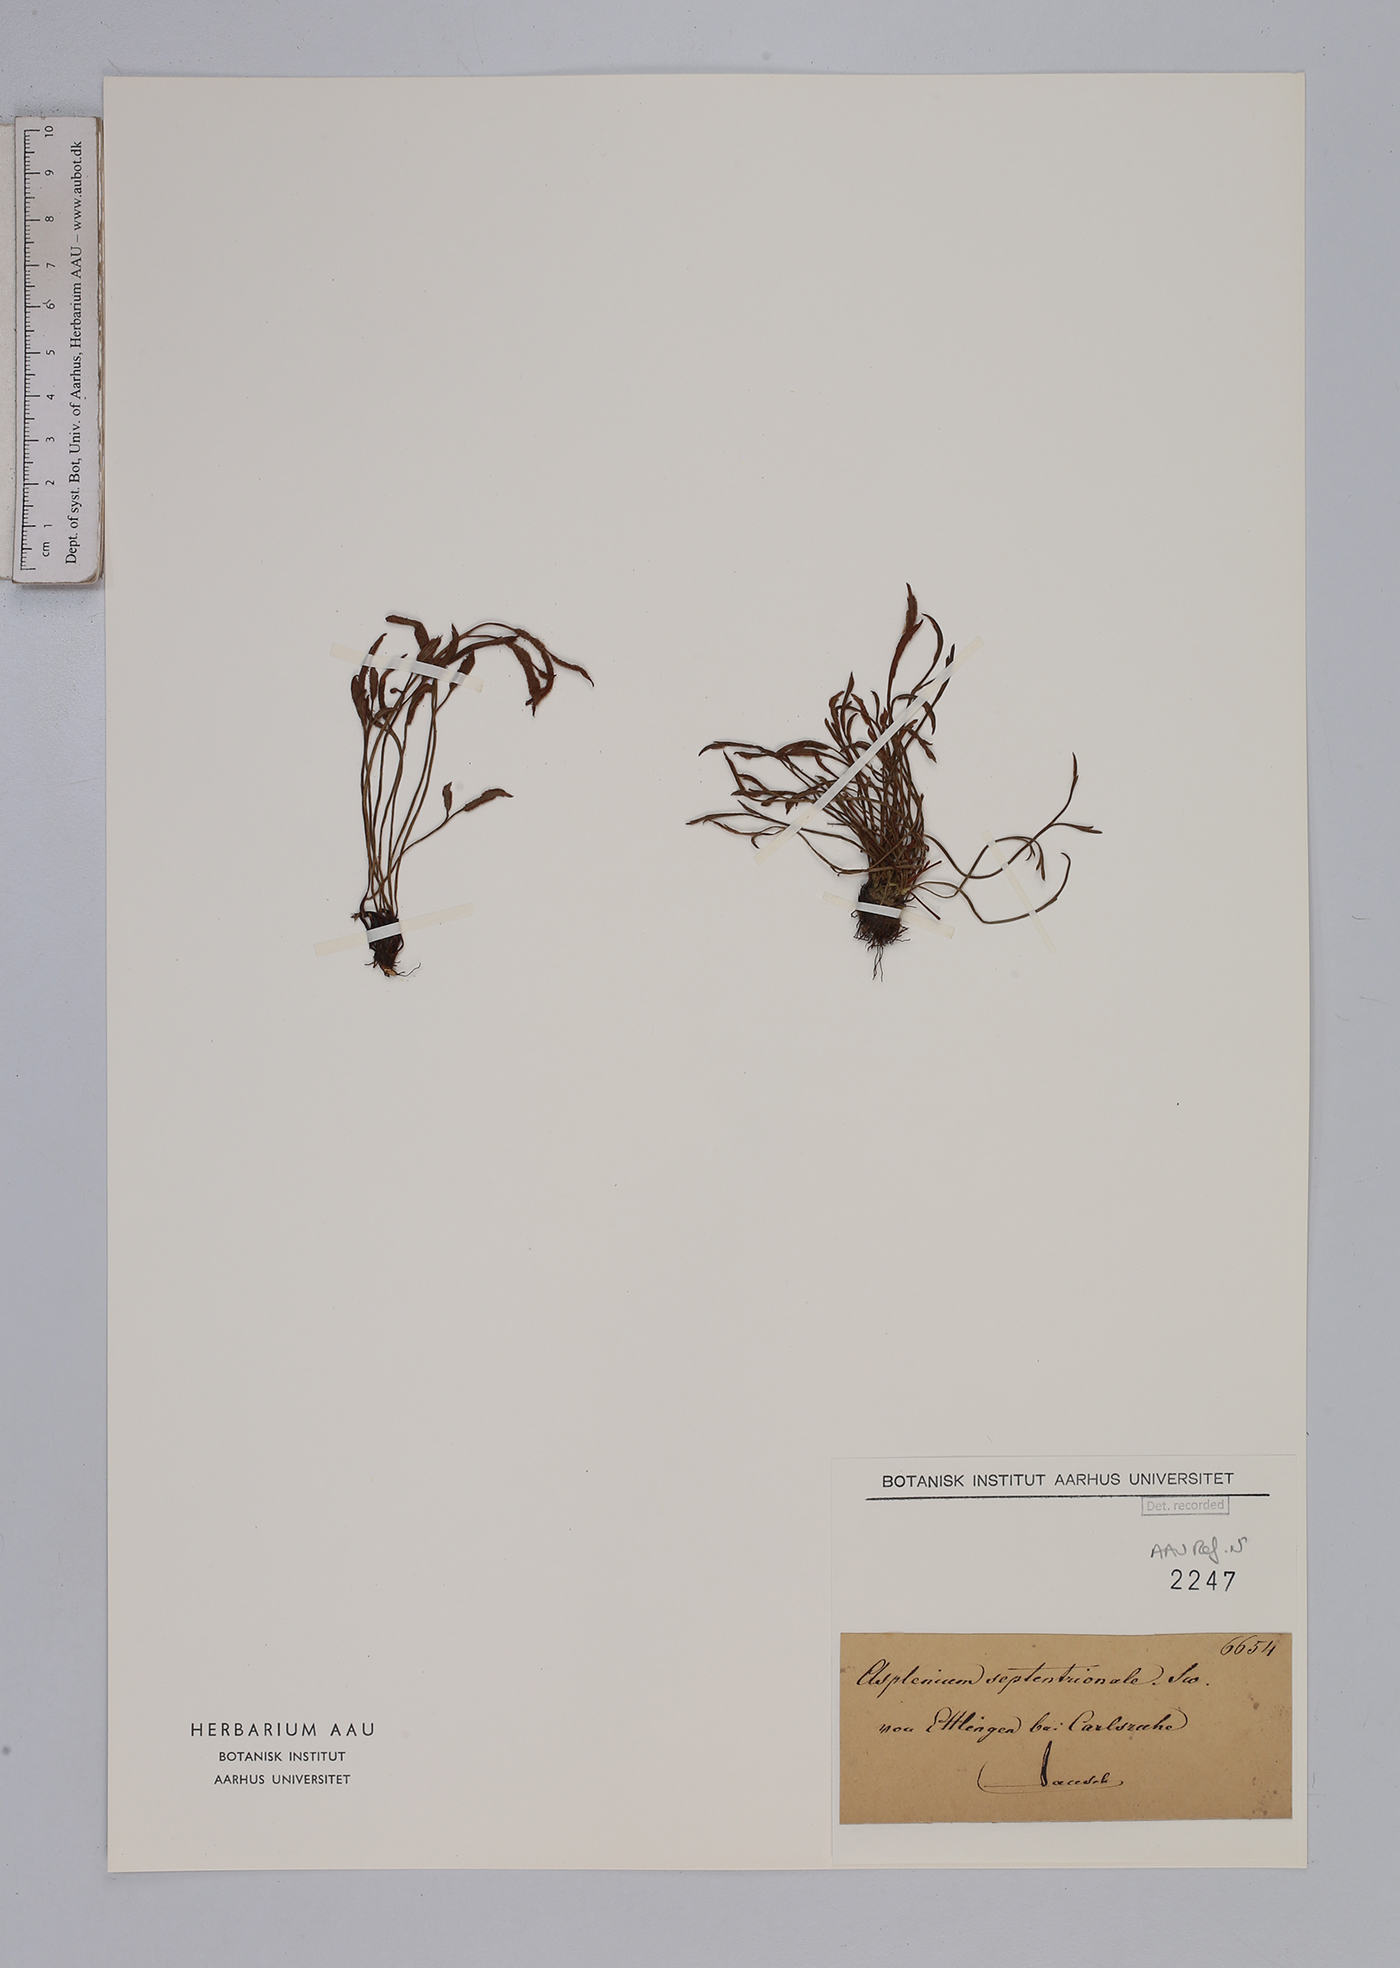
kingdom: Plantae
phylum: Tracheophyta
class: Polypodiopsida
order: Polypodiales
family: Aspleniaceae
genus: Asplenium
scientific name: Asplenium septentrionale
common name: Forked spleenwort
